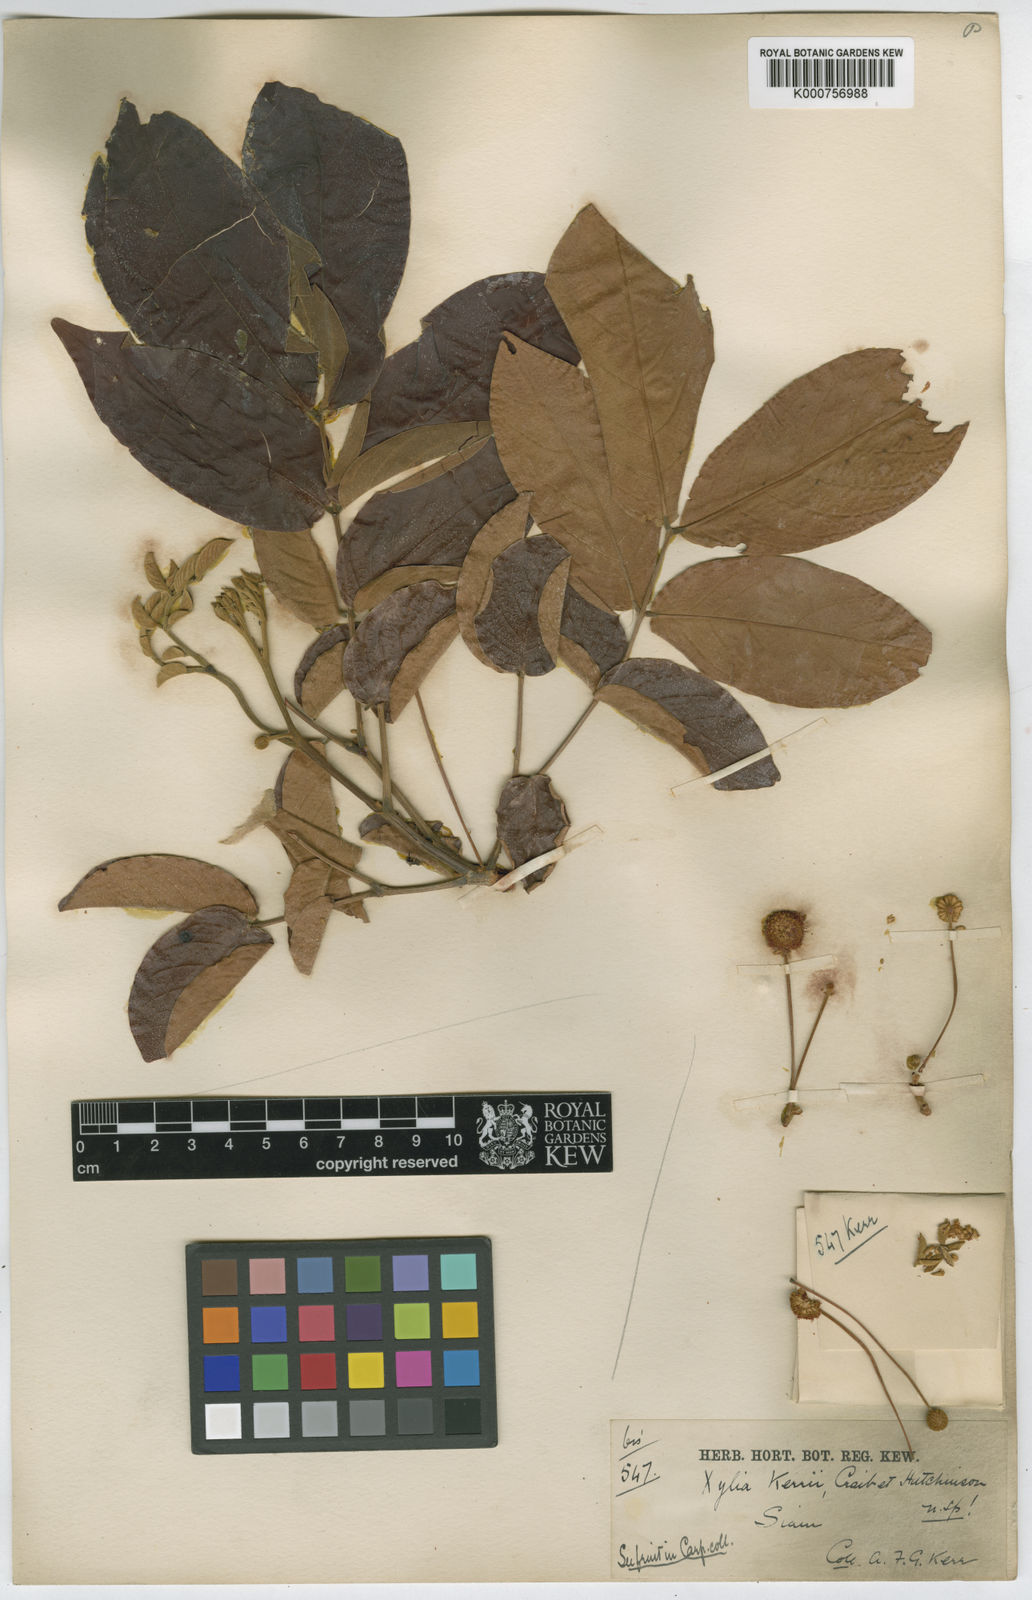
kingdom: Plantae
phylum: Tracheophyta
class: Magnoliopsida
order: Fabales
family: Fabaceae
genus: Xylia
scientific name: Xylia
